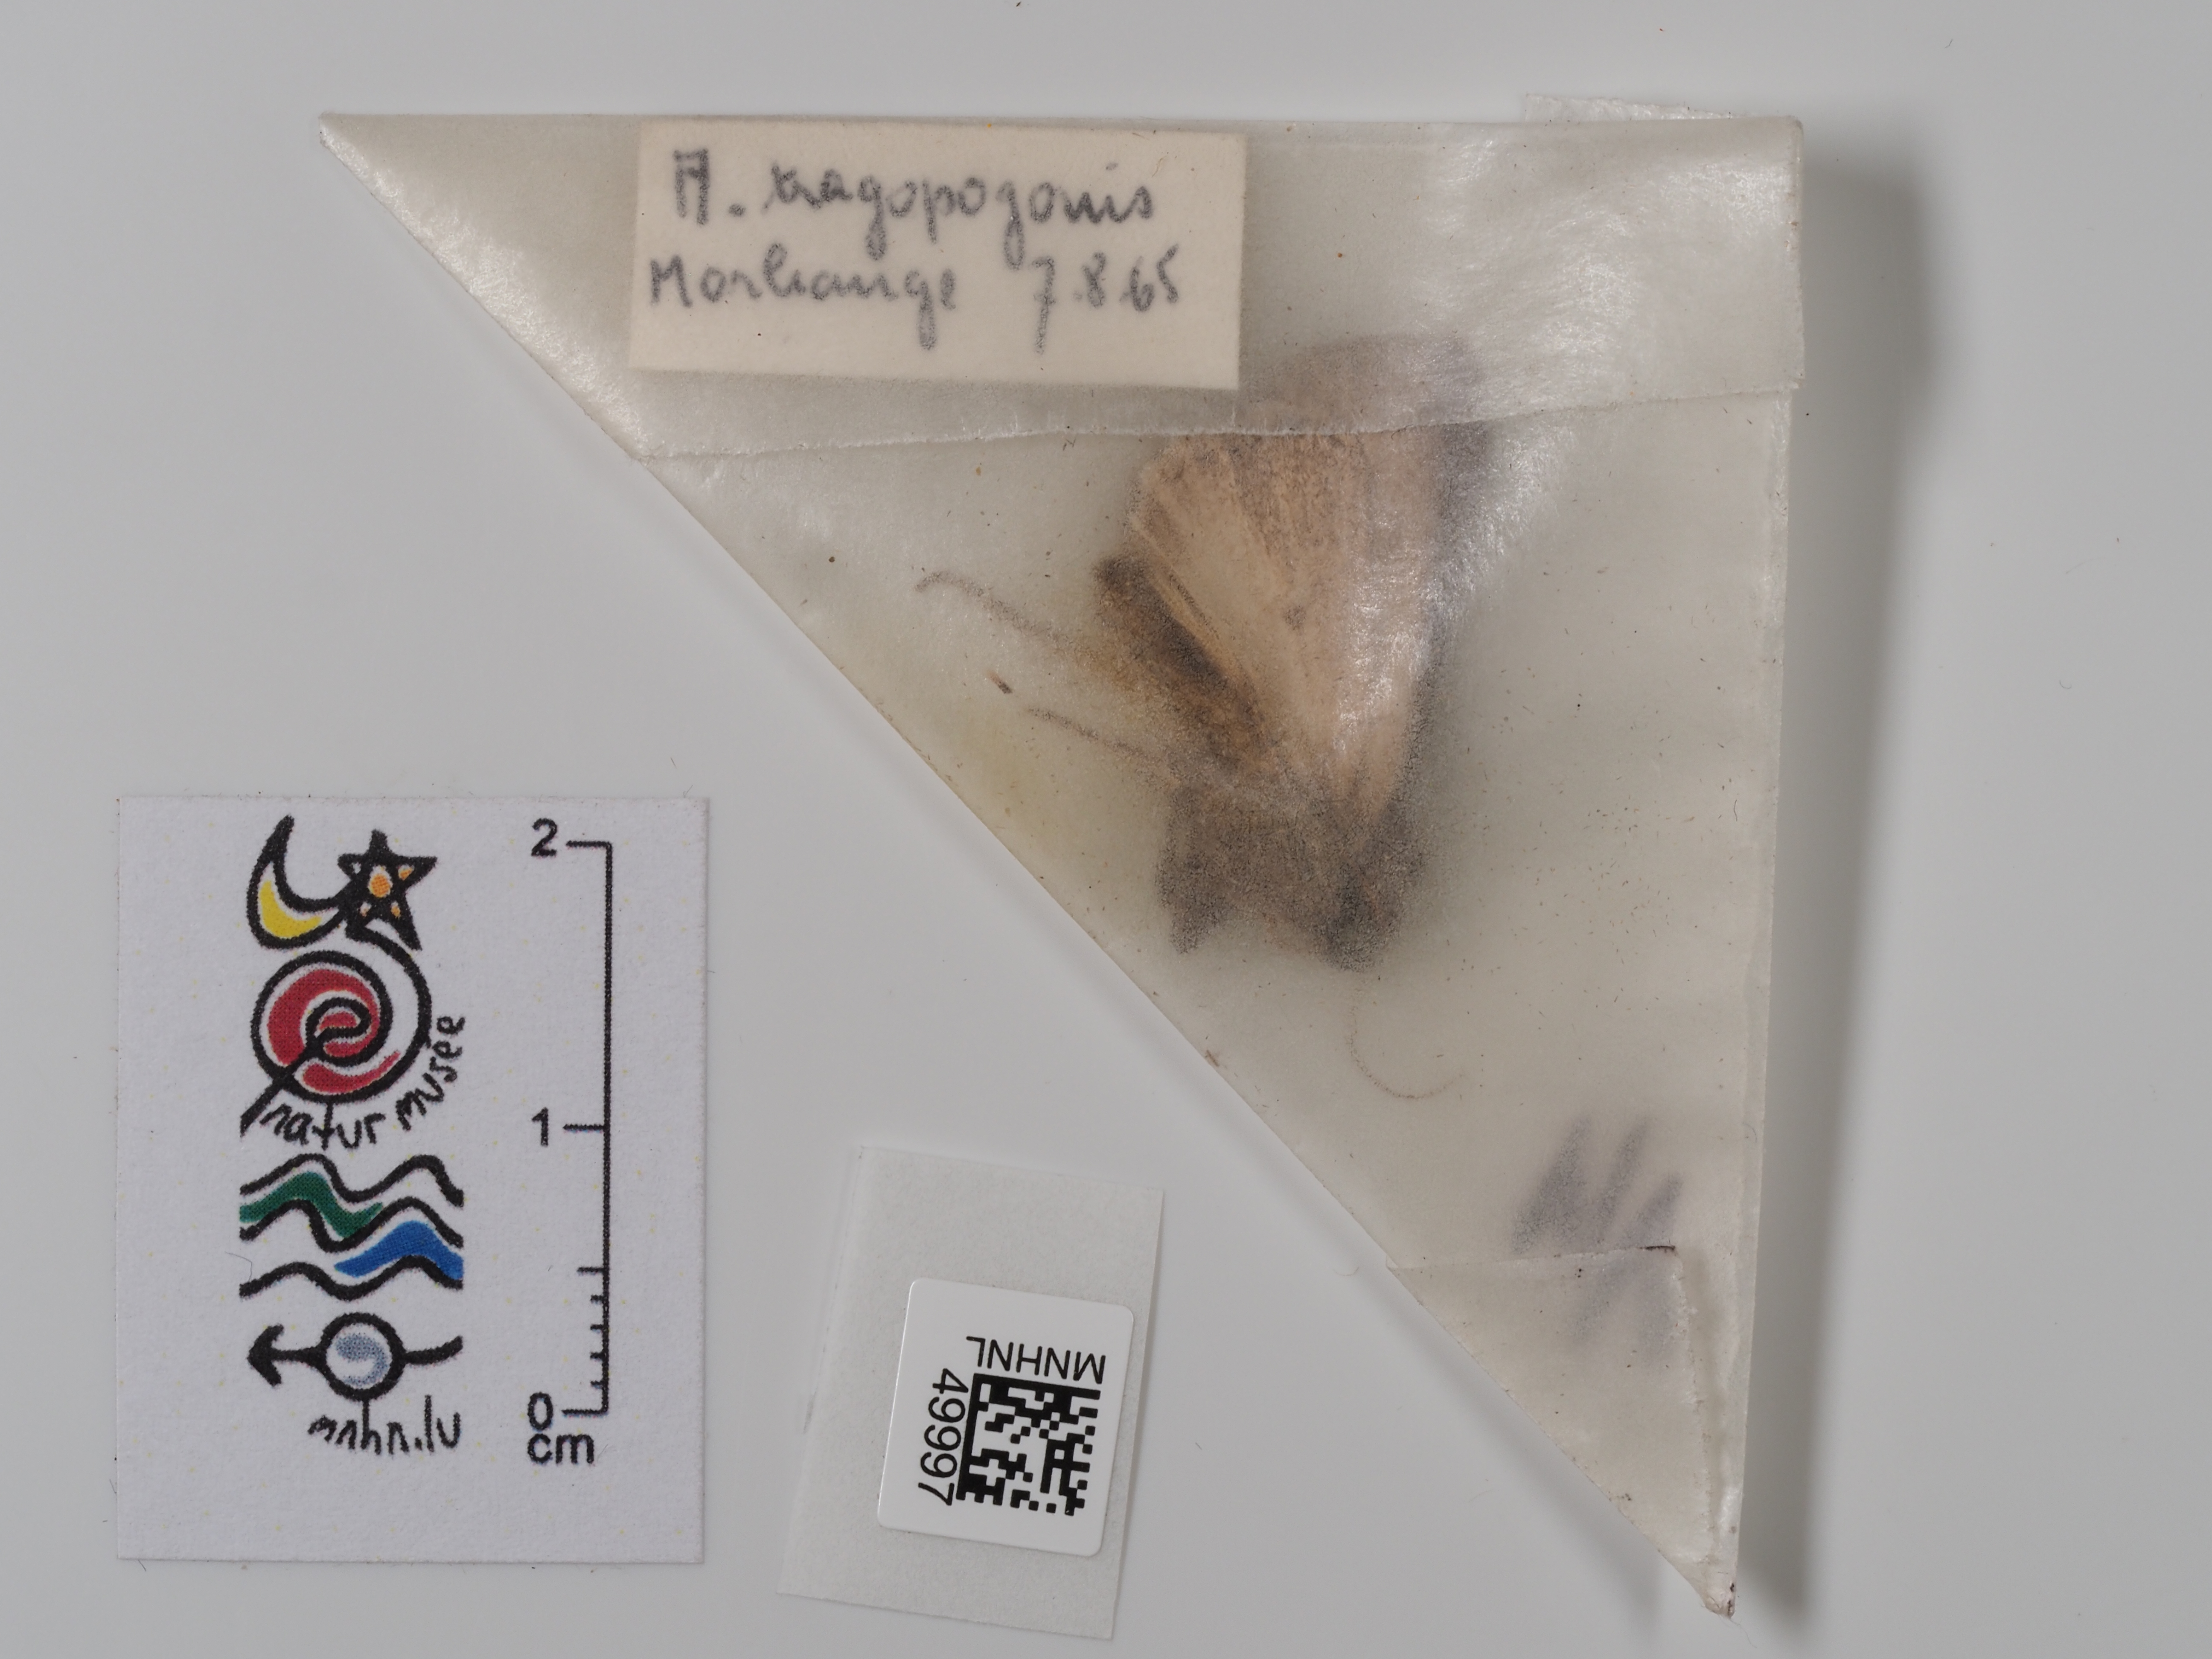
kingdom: Animalia
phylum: Arthropoda
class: Insecta
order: Lepidoptera
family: Noctuidae
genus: Amphipyra
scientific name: Amphipyra tragopoginis
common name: Mouse moth
